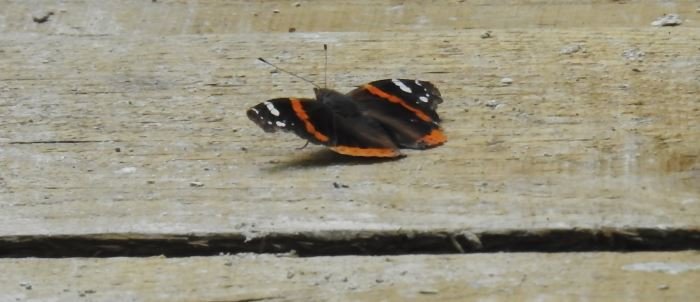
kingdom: Animalia
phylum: Arthropoda
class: Insecta
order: Lepidoptera
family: Nymphalidae
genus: Vanessa
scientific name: Vanessa atalanta
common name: Red Admiral
